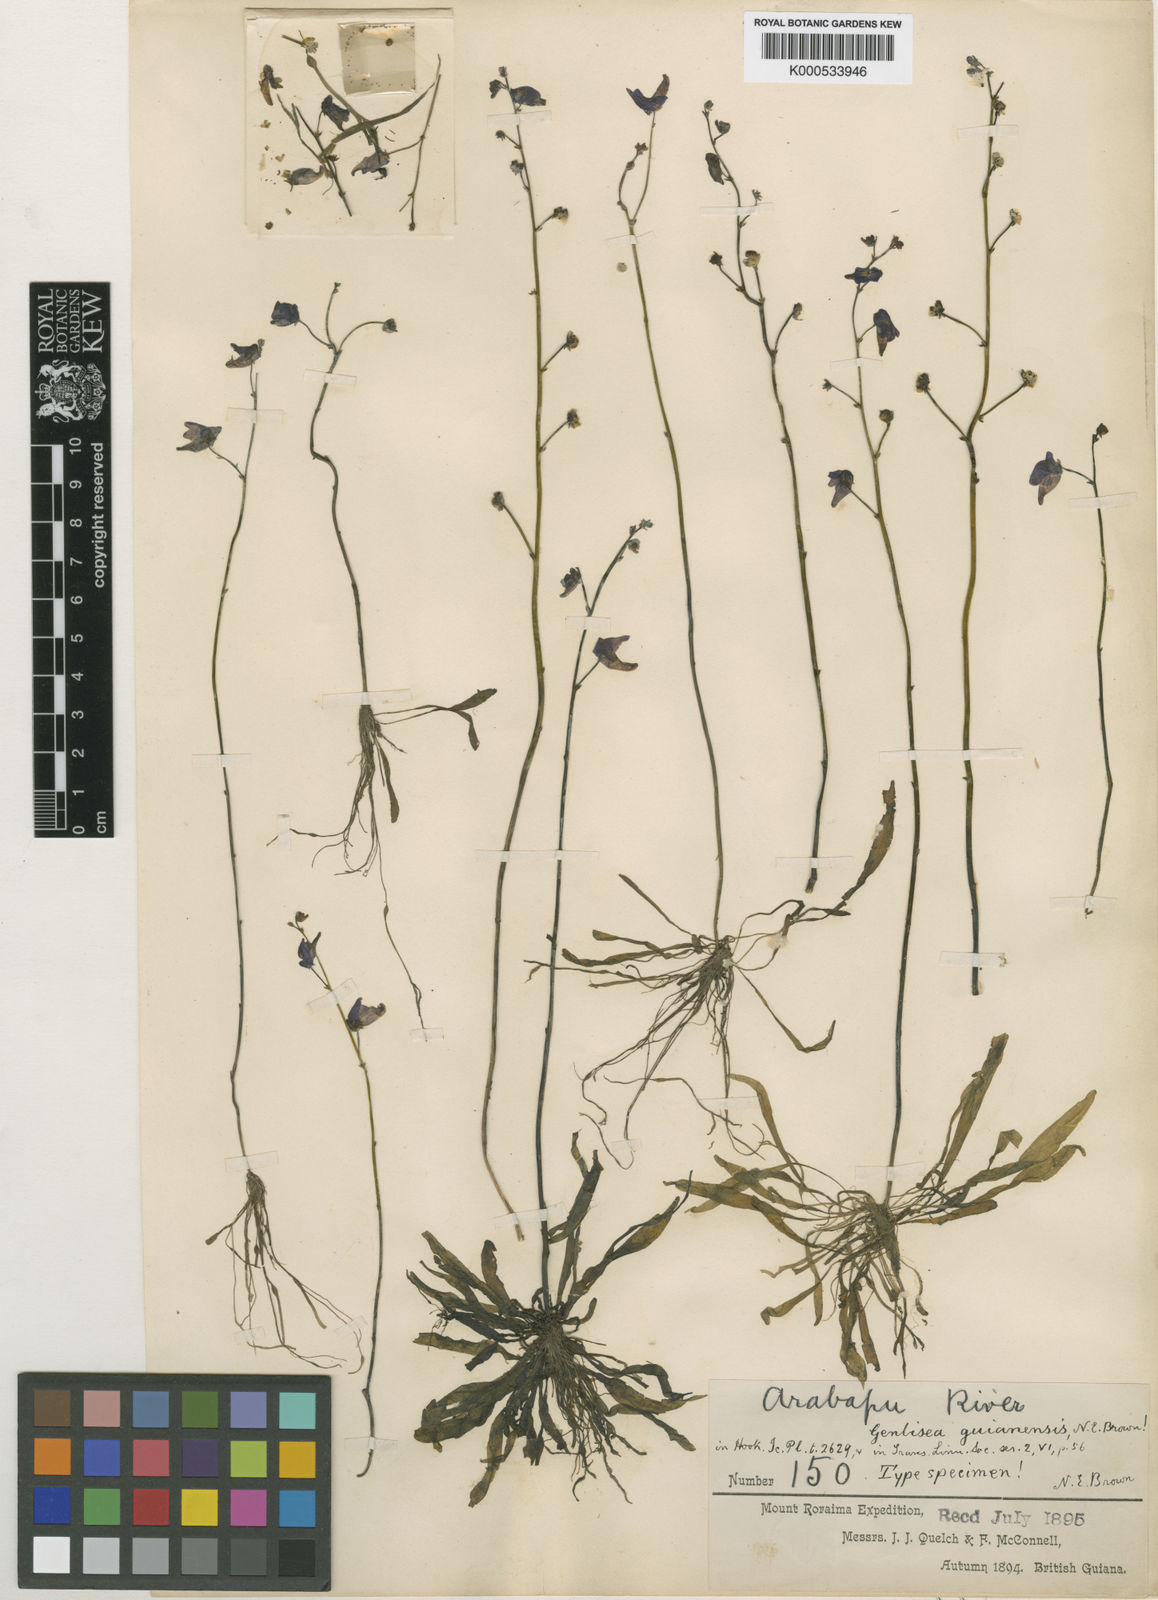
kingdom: Plantae
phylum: Tracheophyta
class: Magnoliopsida
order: Lamiales
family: Lentibulariaceae
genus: Genlisea
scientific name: Genlisea guianensis
